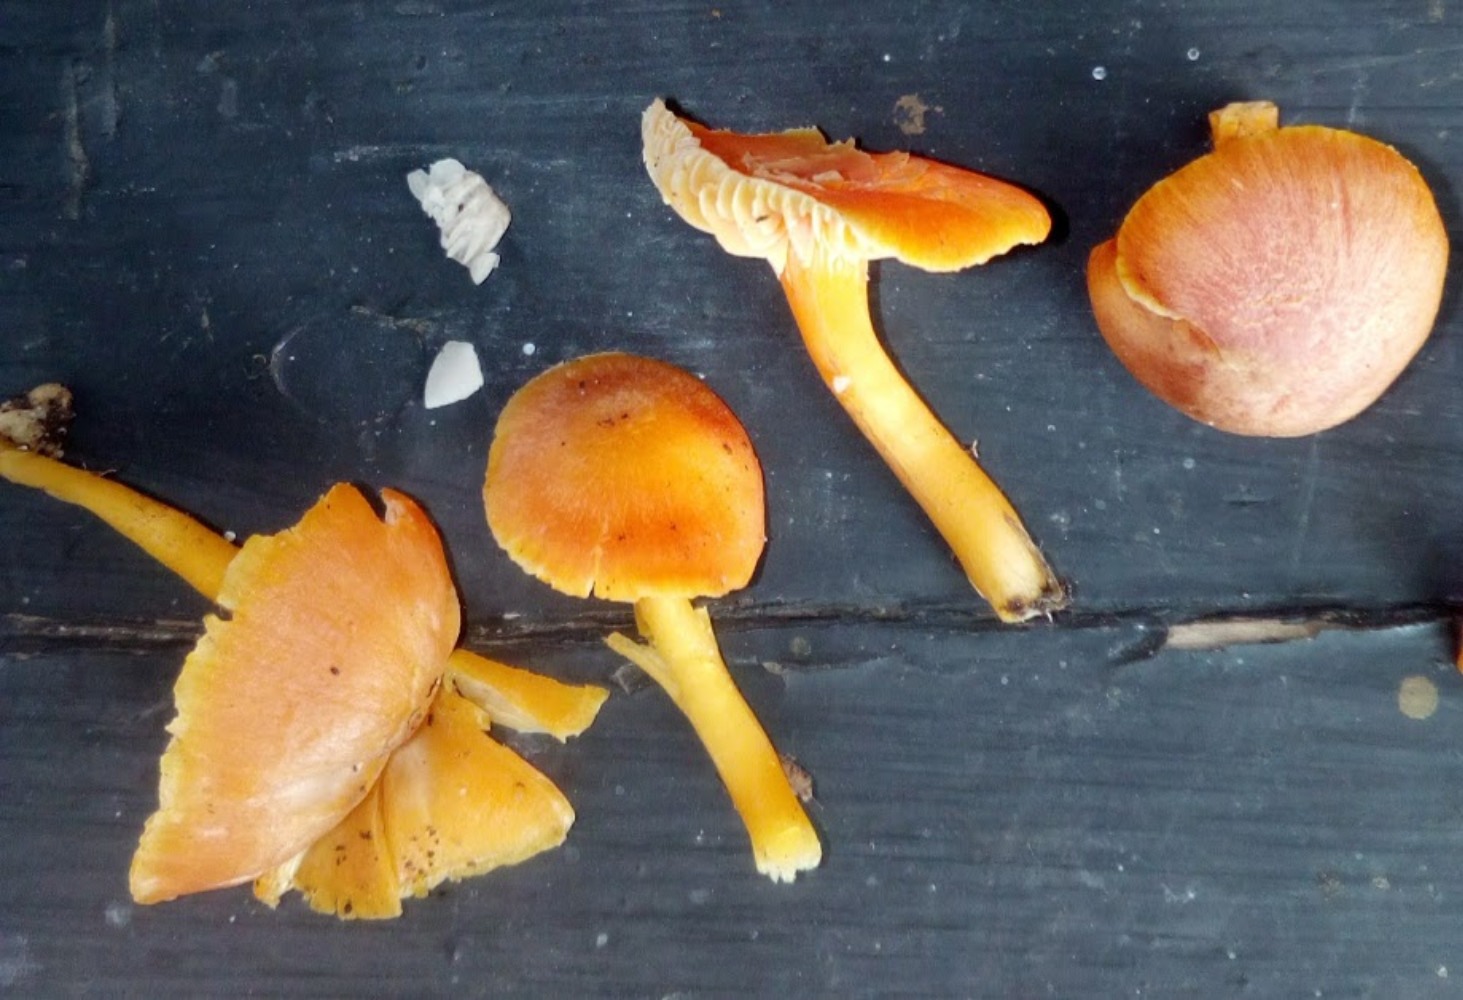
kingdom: Fungi
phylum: Basidiomycota
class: Agaricomycetes
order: Agaricales
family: Hygrophoraceae
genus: Hygrocybe
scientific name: Hygrocybe reidii
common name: honning-vokshat
